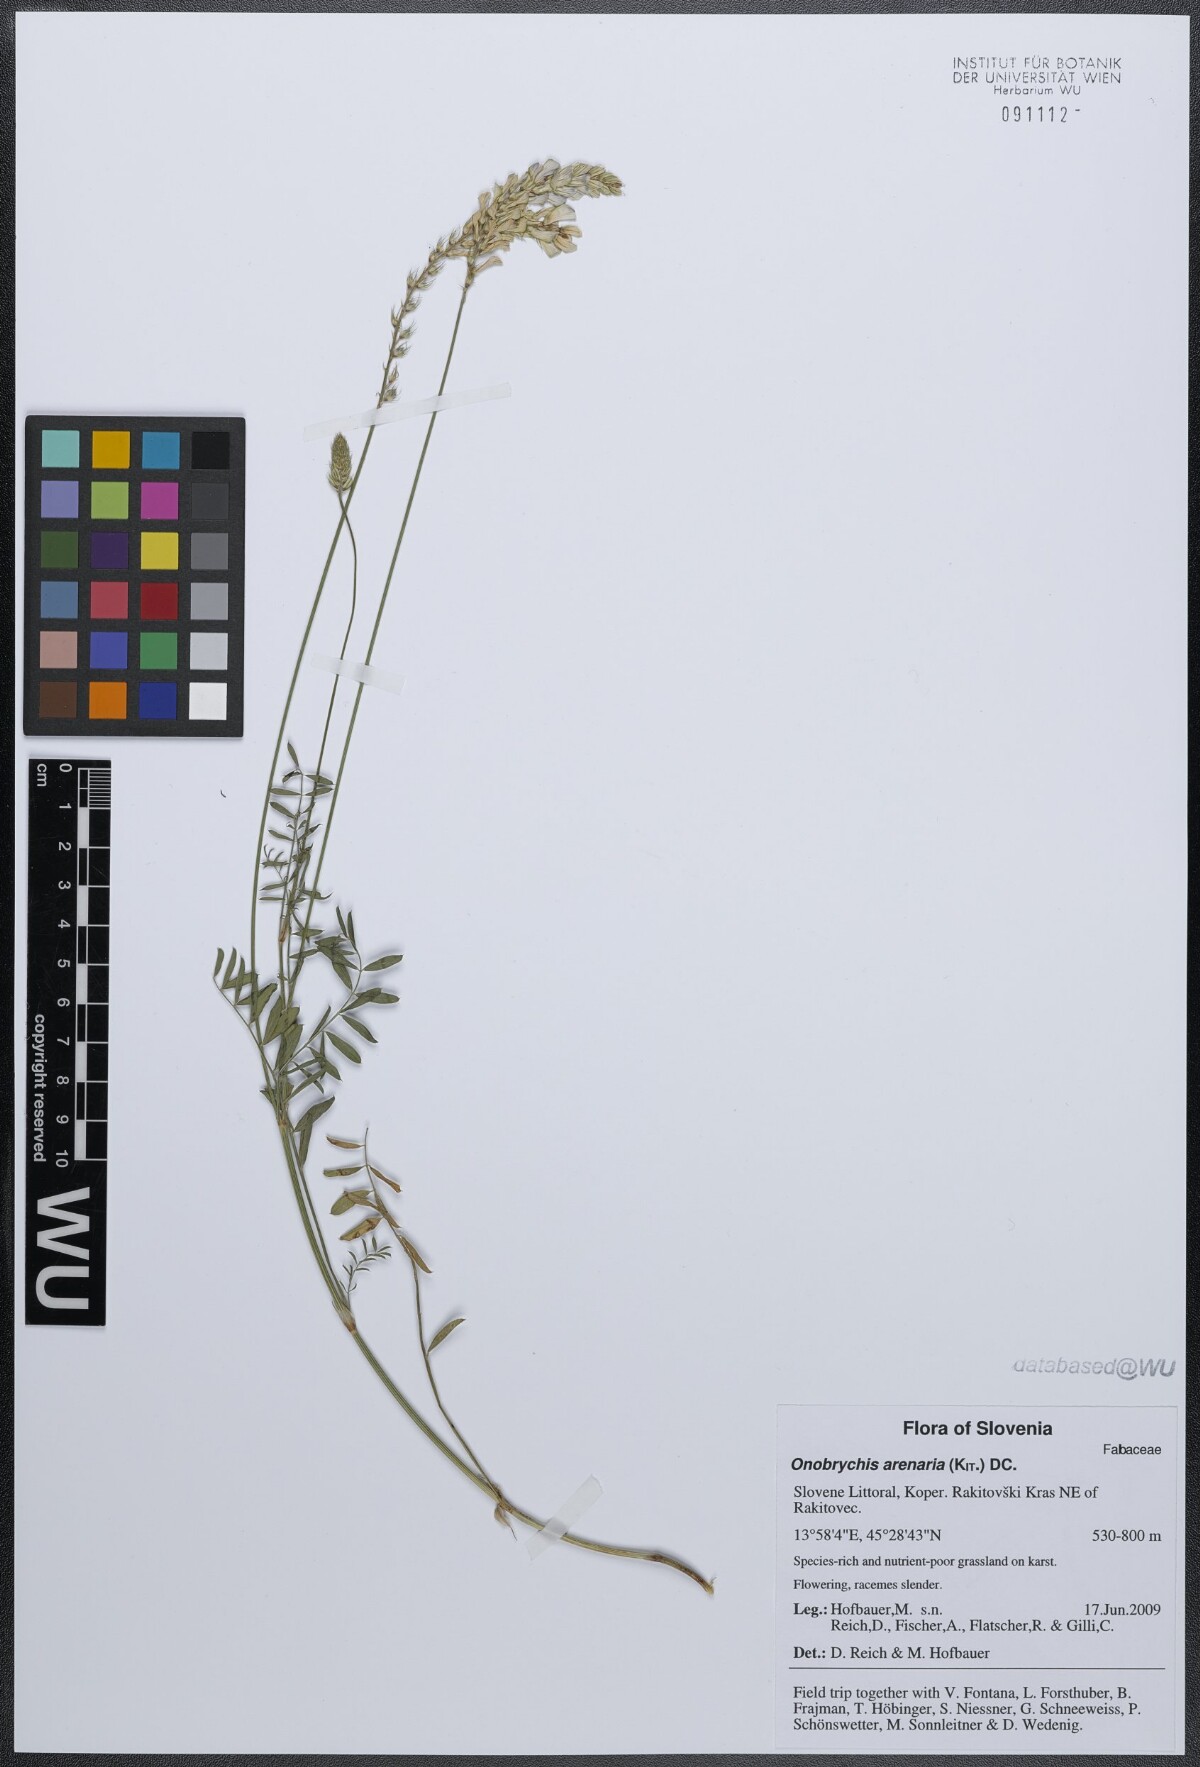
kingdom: Plantae
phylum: Tracheophyta
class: Magnoliopsida
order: Fabales
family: Fabaceae
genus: Onobrychis
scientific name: Onobrychis arenaria
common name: Sand esparcet
